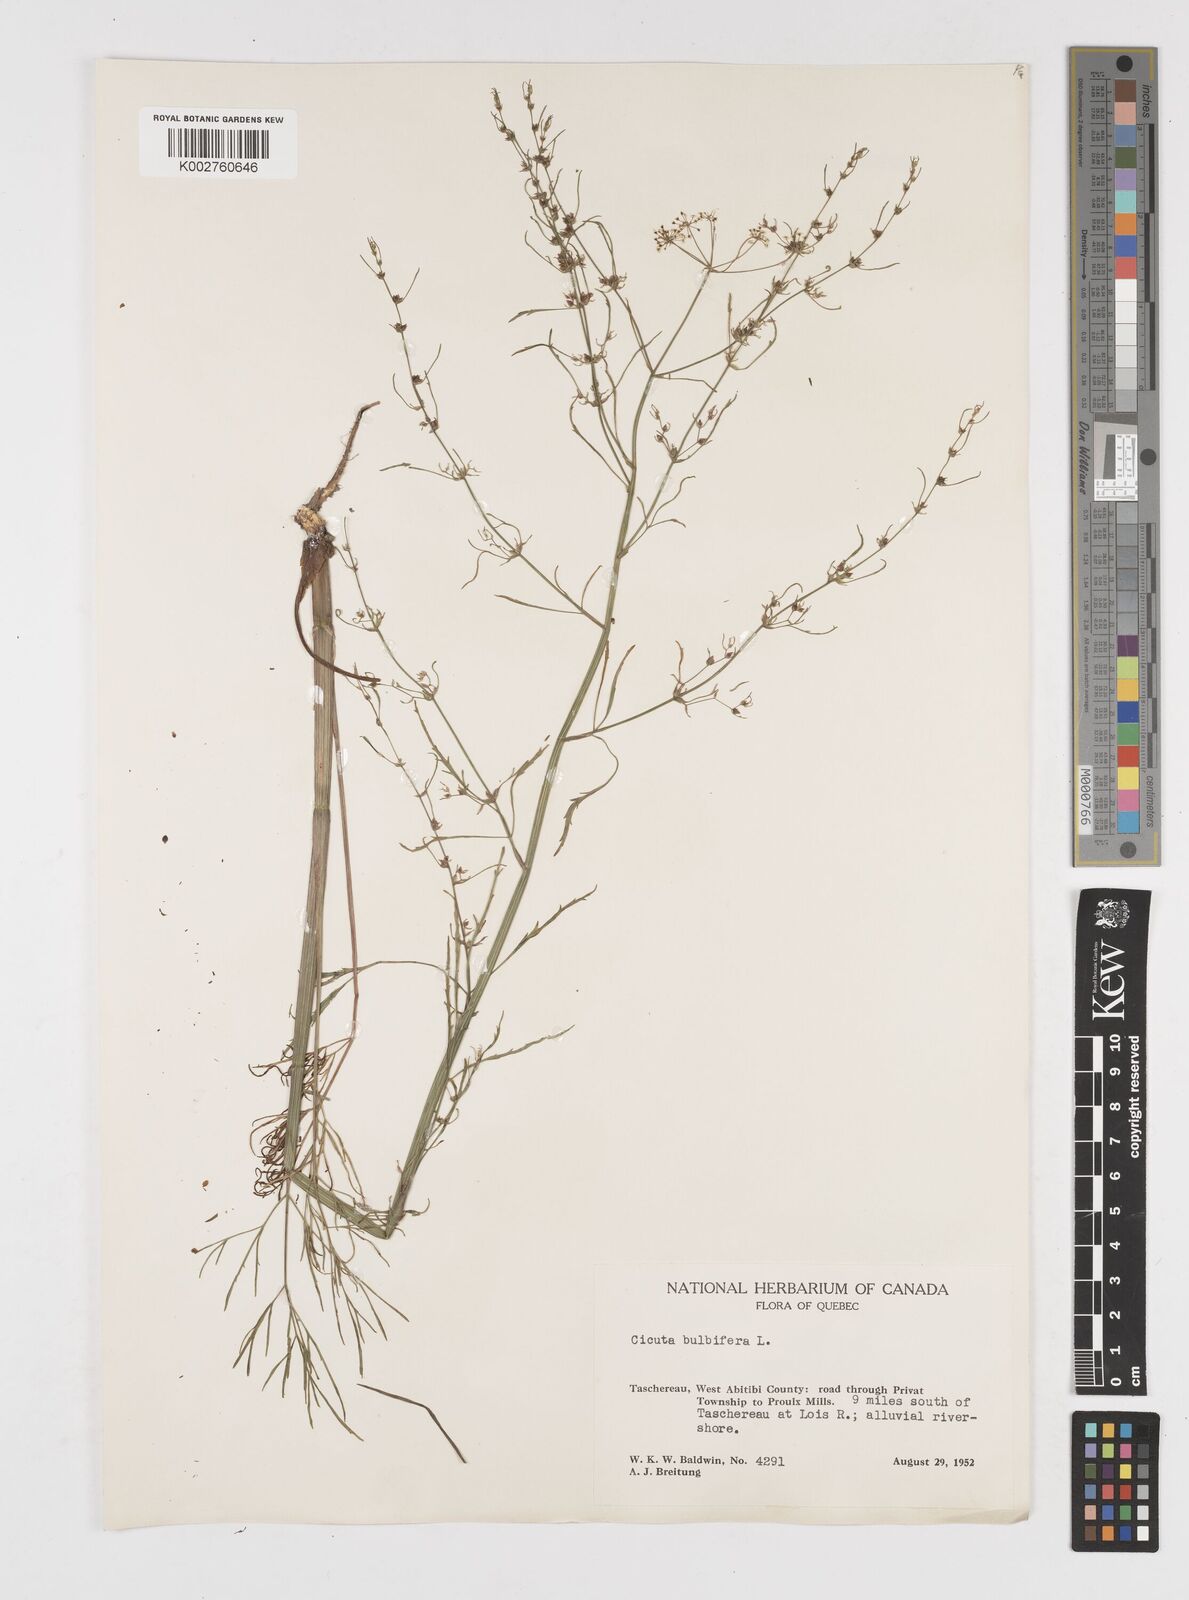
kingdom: Plantae
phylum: Tracheophyta
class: Magnoliopsida
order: Apiales
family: Apiaceae
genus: Cicuta
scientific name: Cicuta bulbifera
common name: Bulb-bearing water-hemlock
